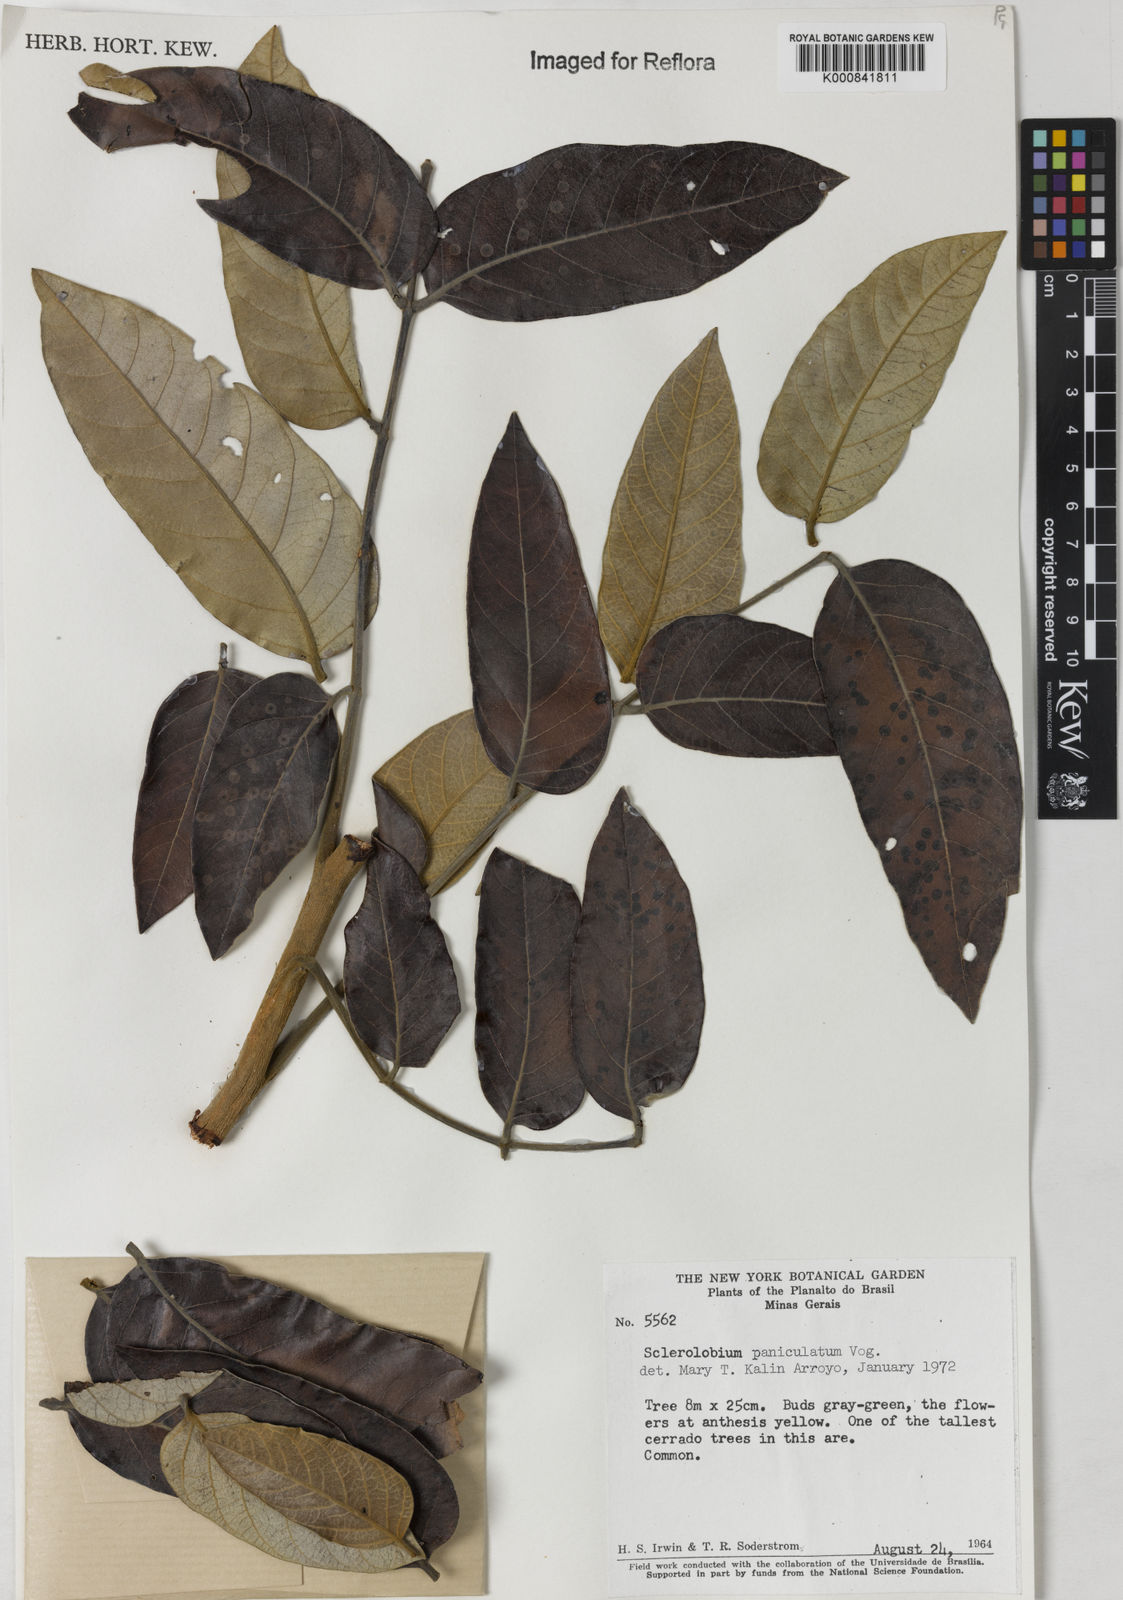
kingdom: Plantae
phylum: Tracheophyta
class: Magnoliopsida
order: Fabales
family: Fabaceae
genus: Tachigali
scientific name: Tachigali subvelutina
